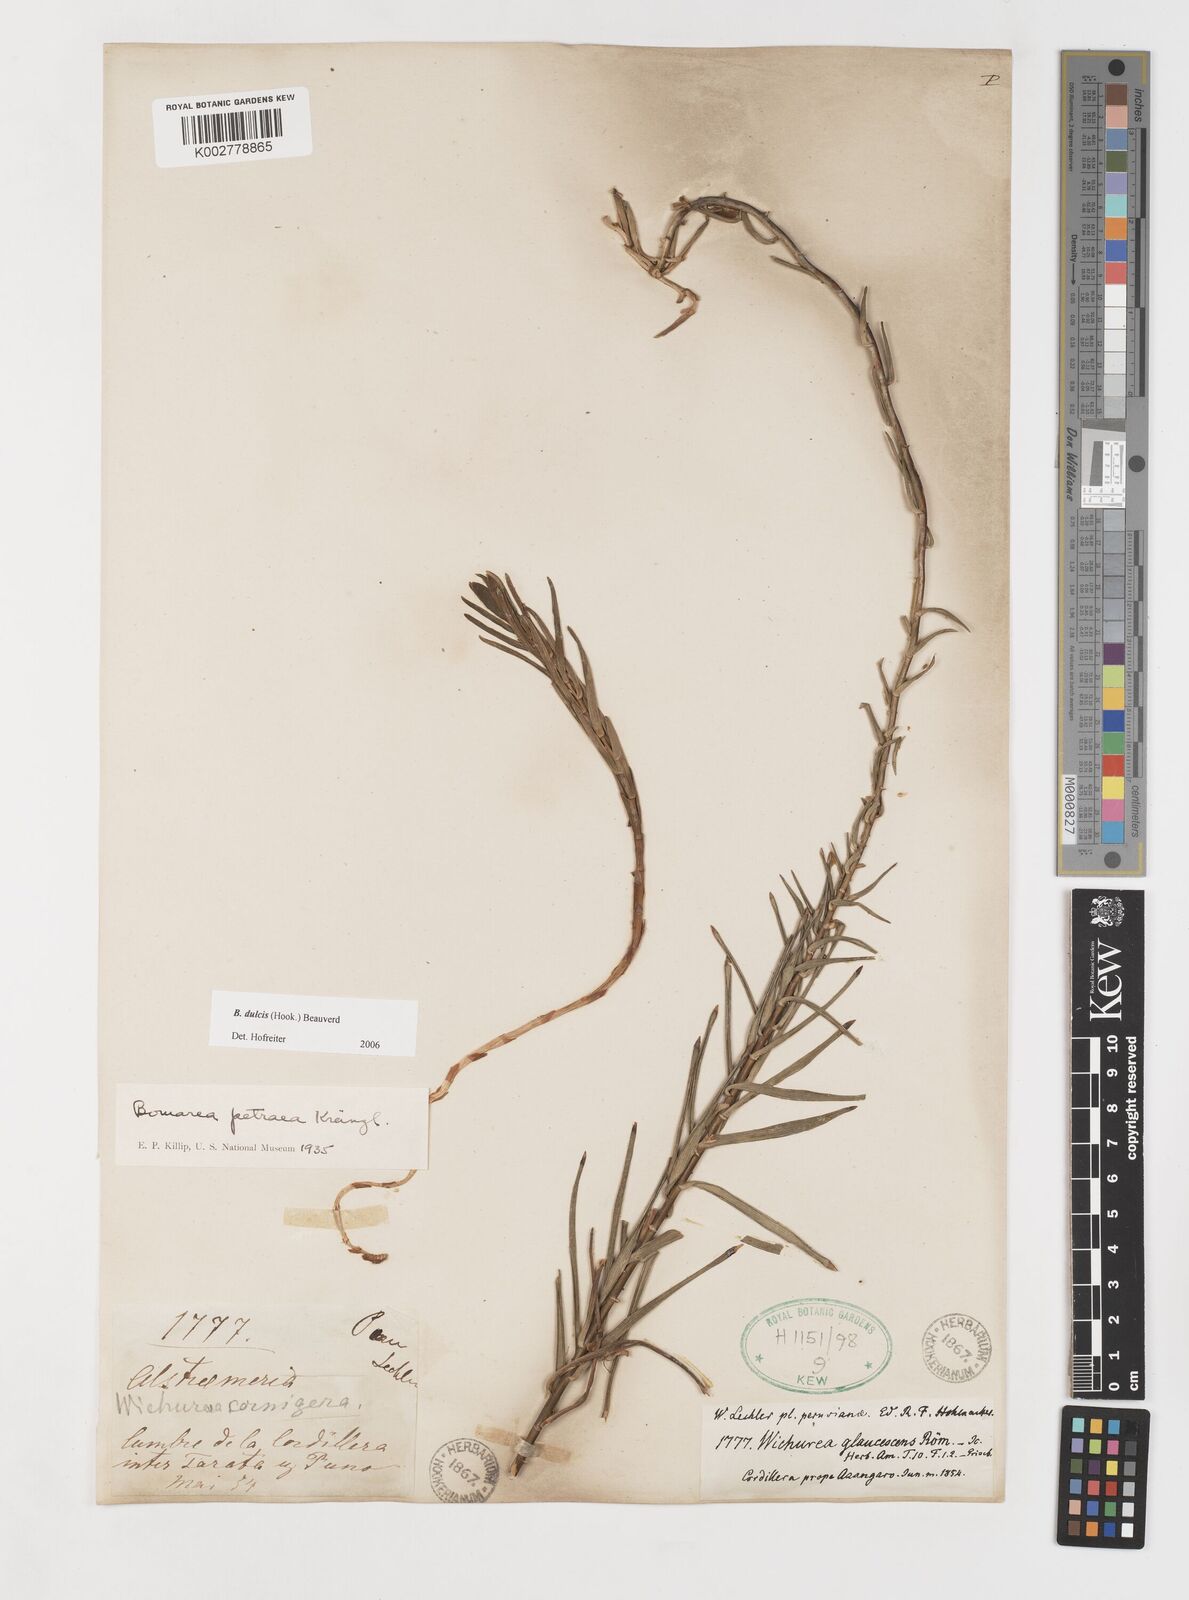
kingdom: Plantae
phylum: Tracheophyta
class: Liliopsida
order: Liliales
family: Alstroemeriaceae
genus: Bomarea
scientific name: Bomarea dulcis
